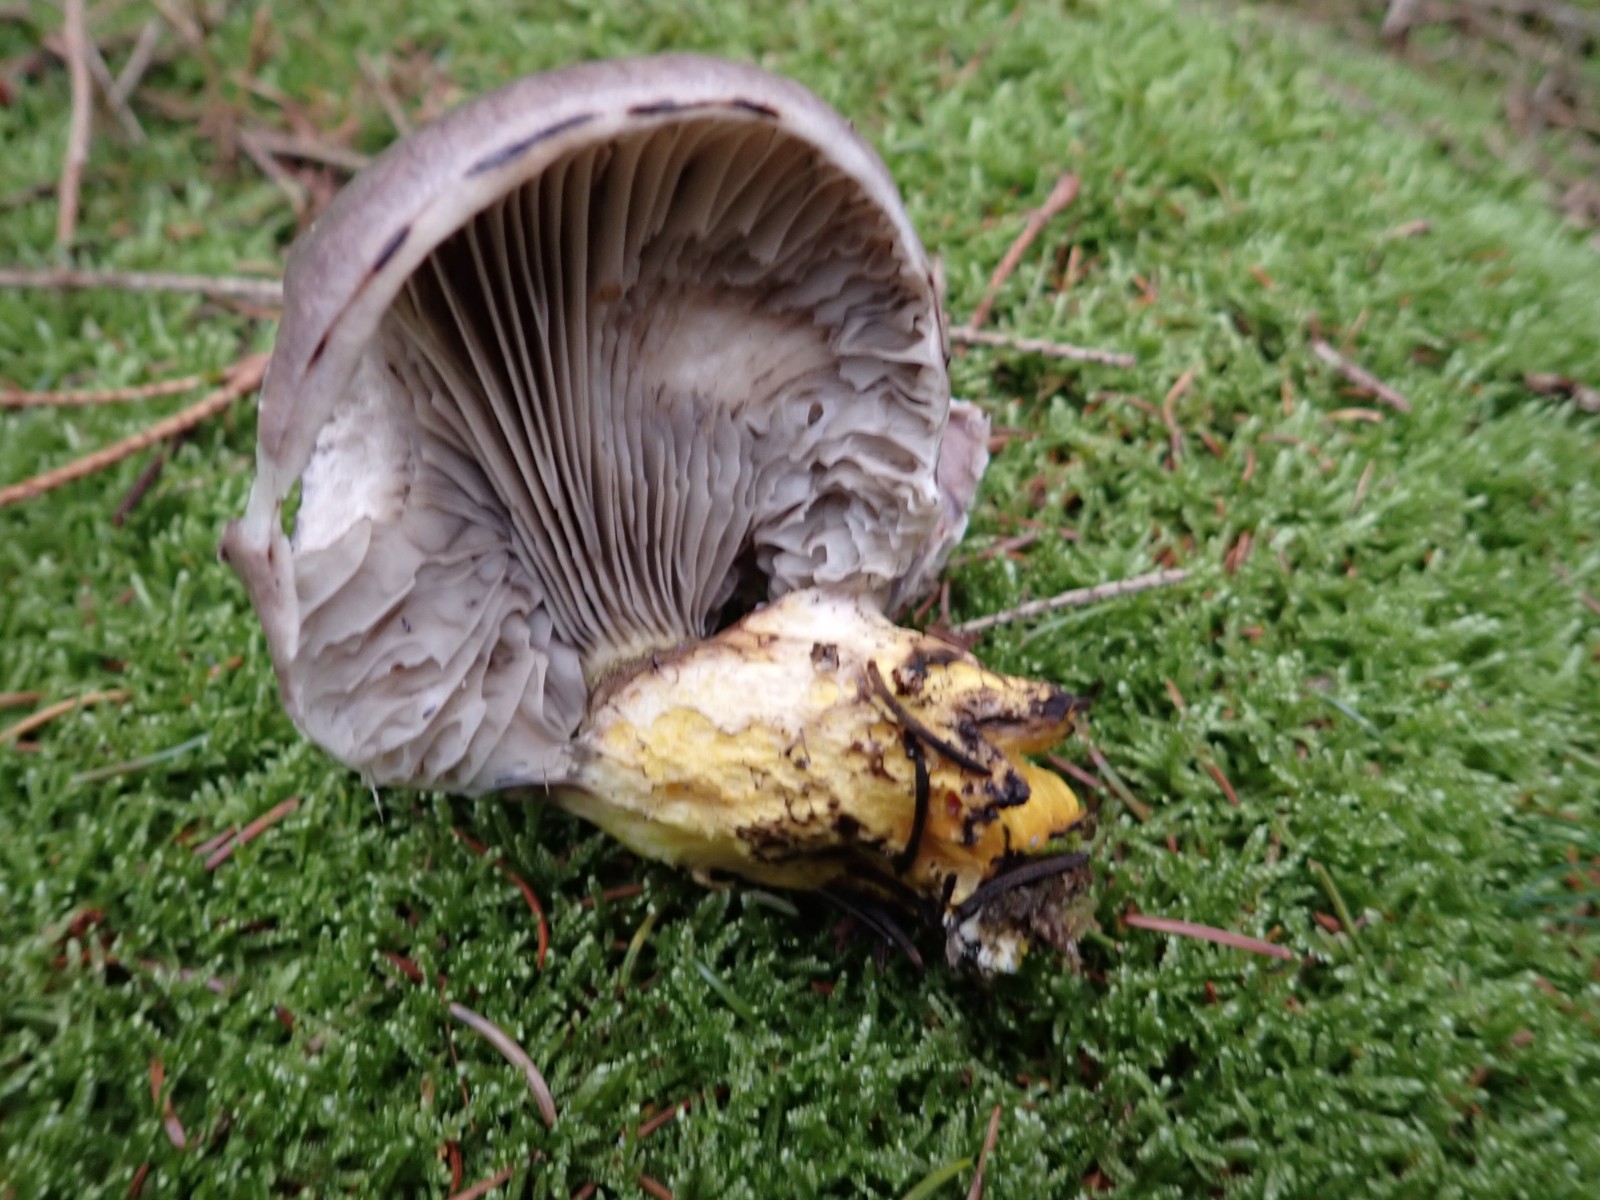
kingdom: Fungi
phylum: Basidiomycota
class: Agaricomycetes
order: Boletales
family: Gomphidiaceae
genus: Gomphidius
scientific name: Gomphidius glutinosus
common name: grå slimslør
